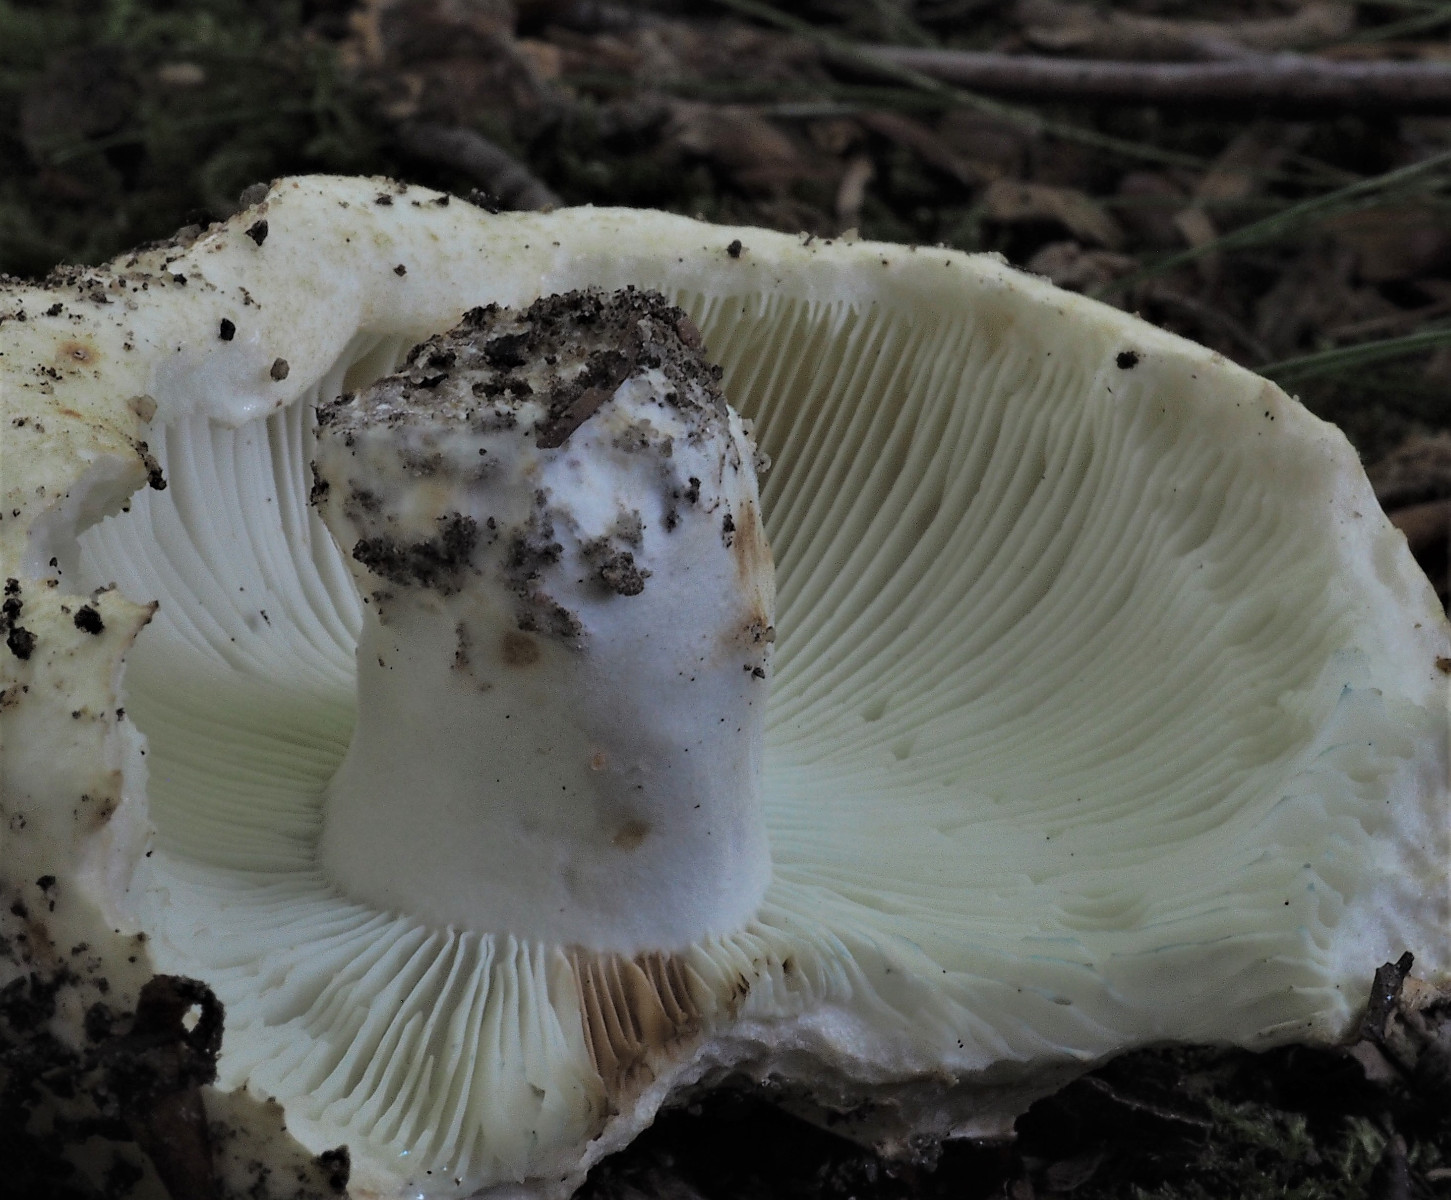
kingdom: Fungi
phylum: Basidiomycota
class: Agaricomycetes
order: Russulales
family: Russulaceae
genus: Russula
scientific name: Russula chloroides
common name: grønhalset tragt-skørhat
